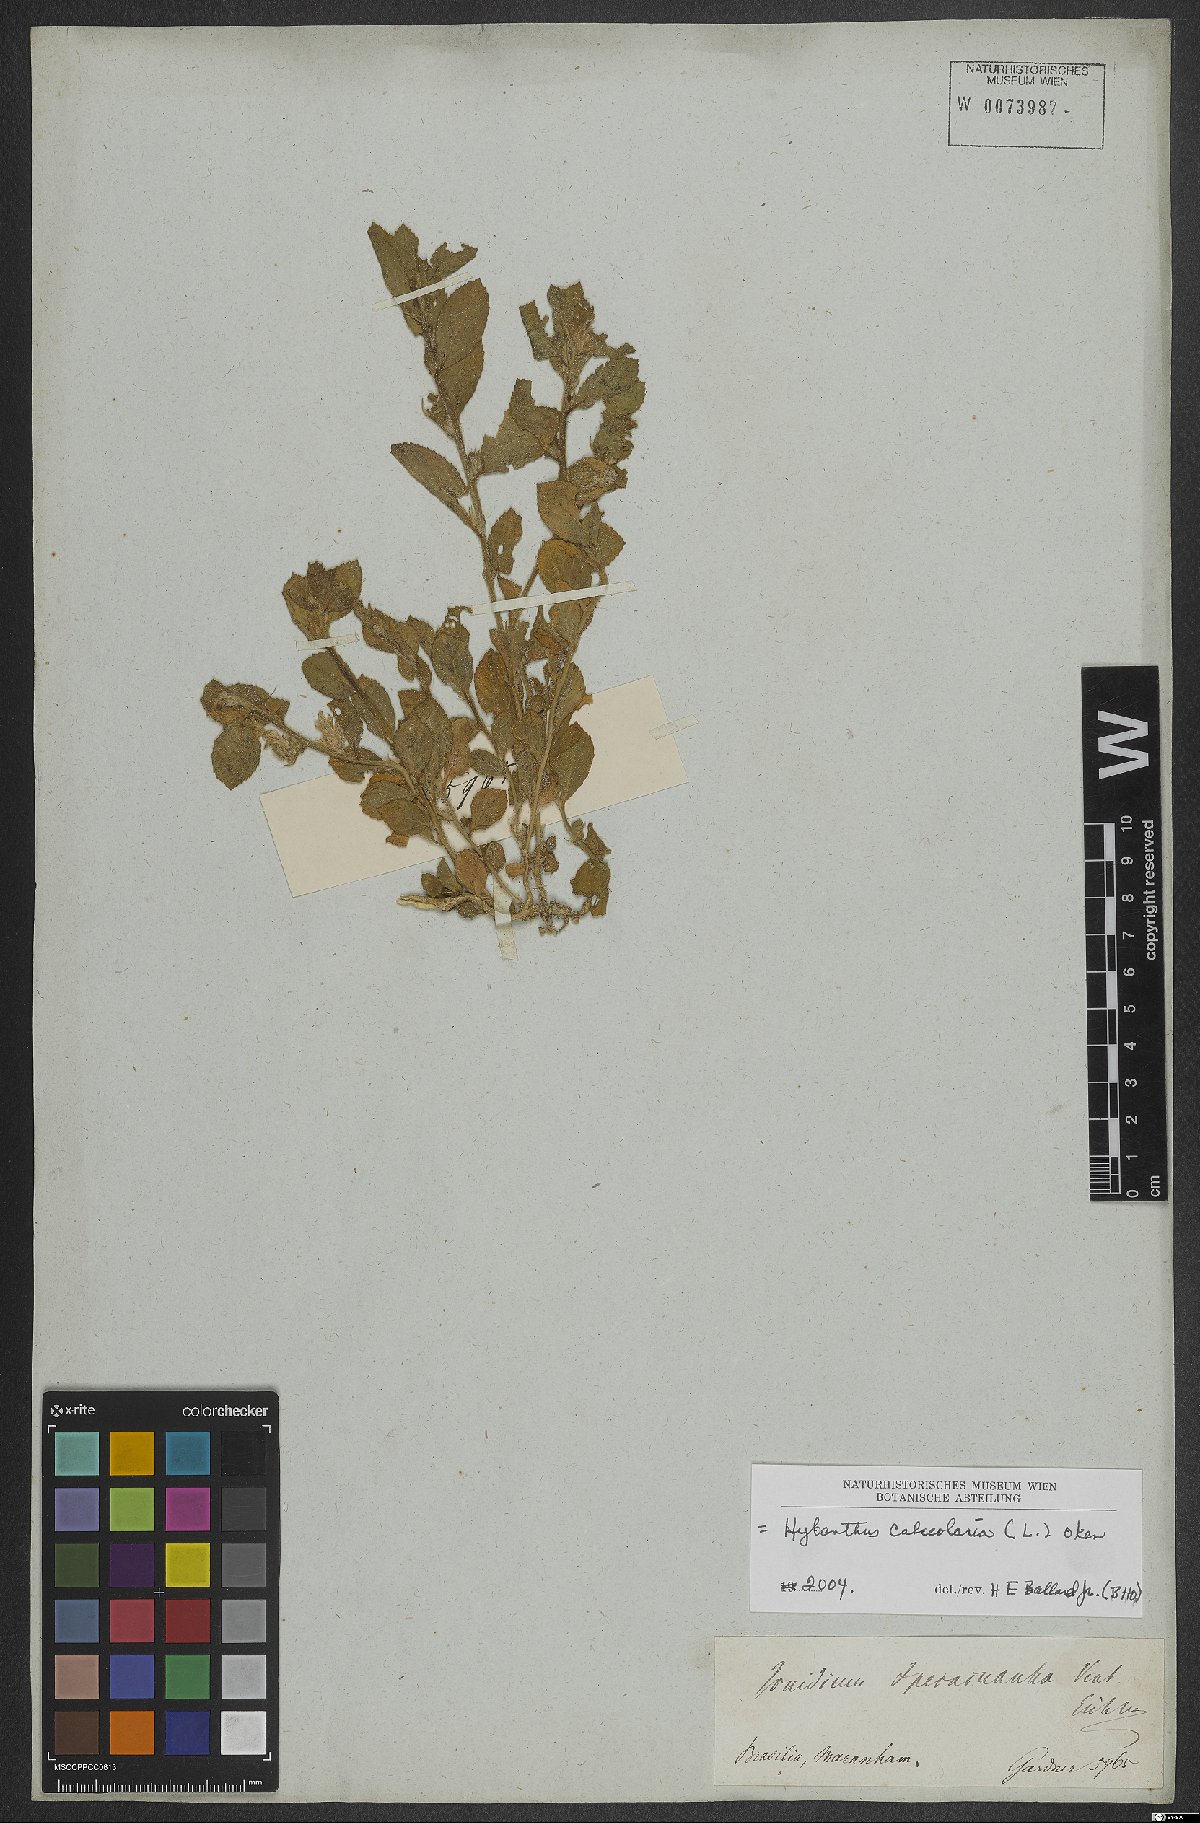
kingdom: Plantae
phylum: Tracheophyta
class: Magnoliopsida
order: Malpighiales
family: Violaceae
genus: Pombalia
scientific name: Pombalia calceolaria
